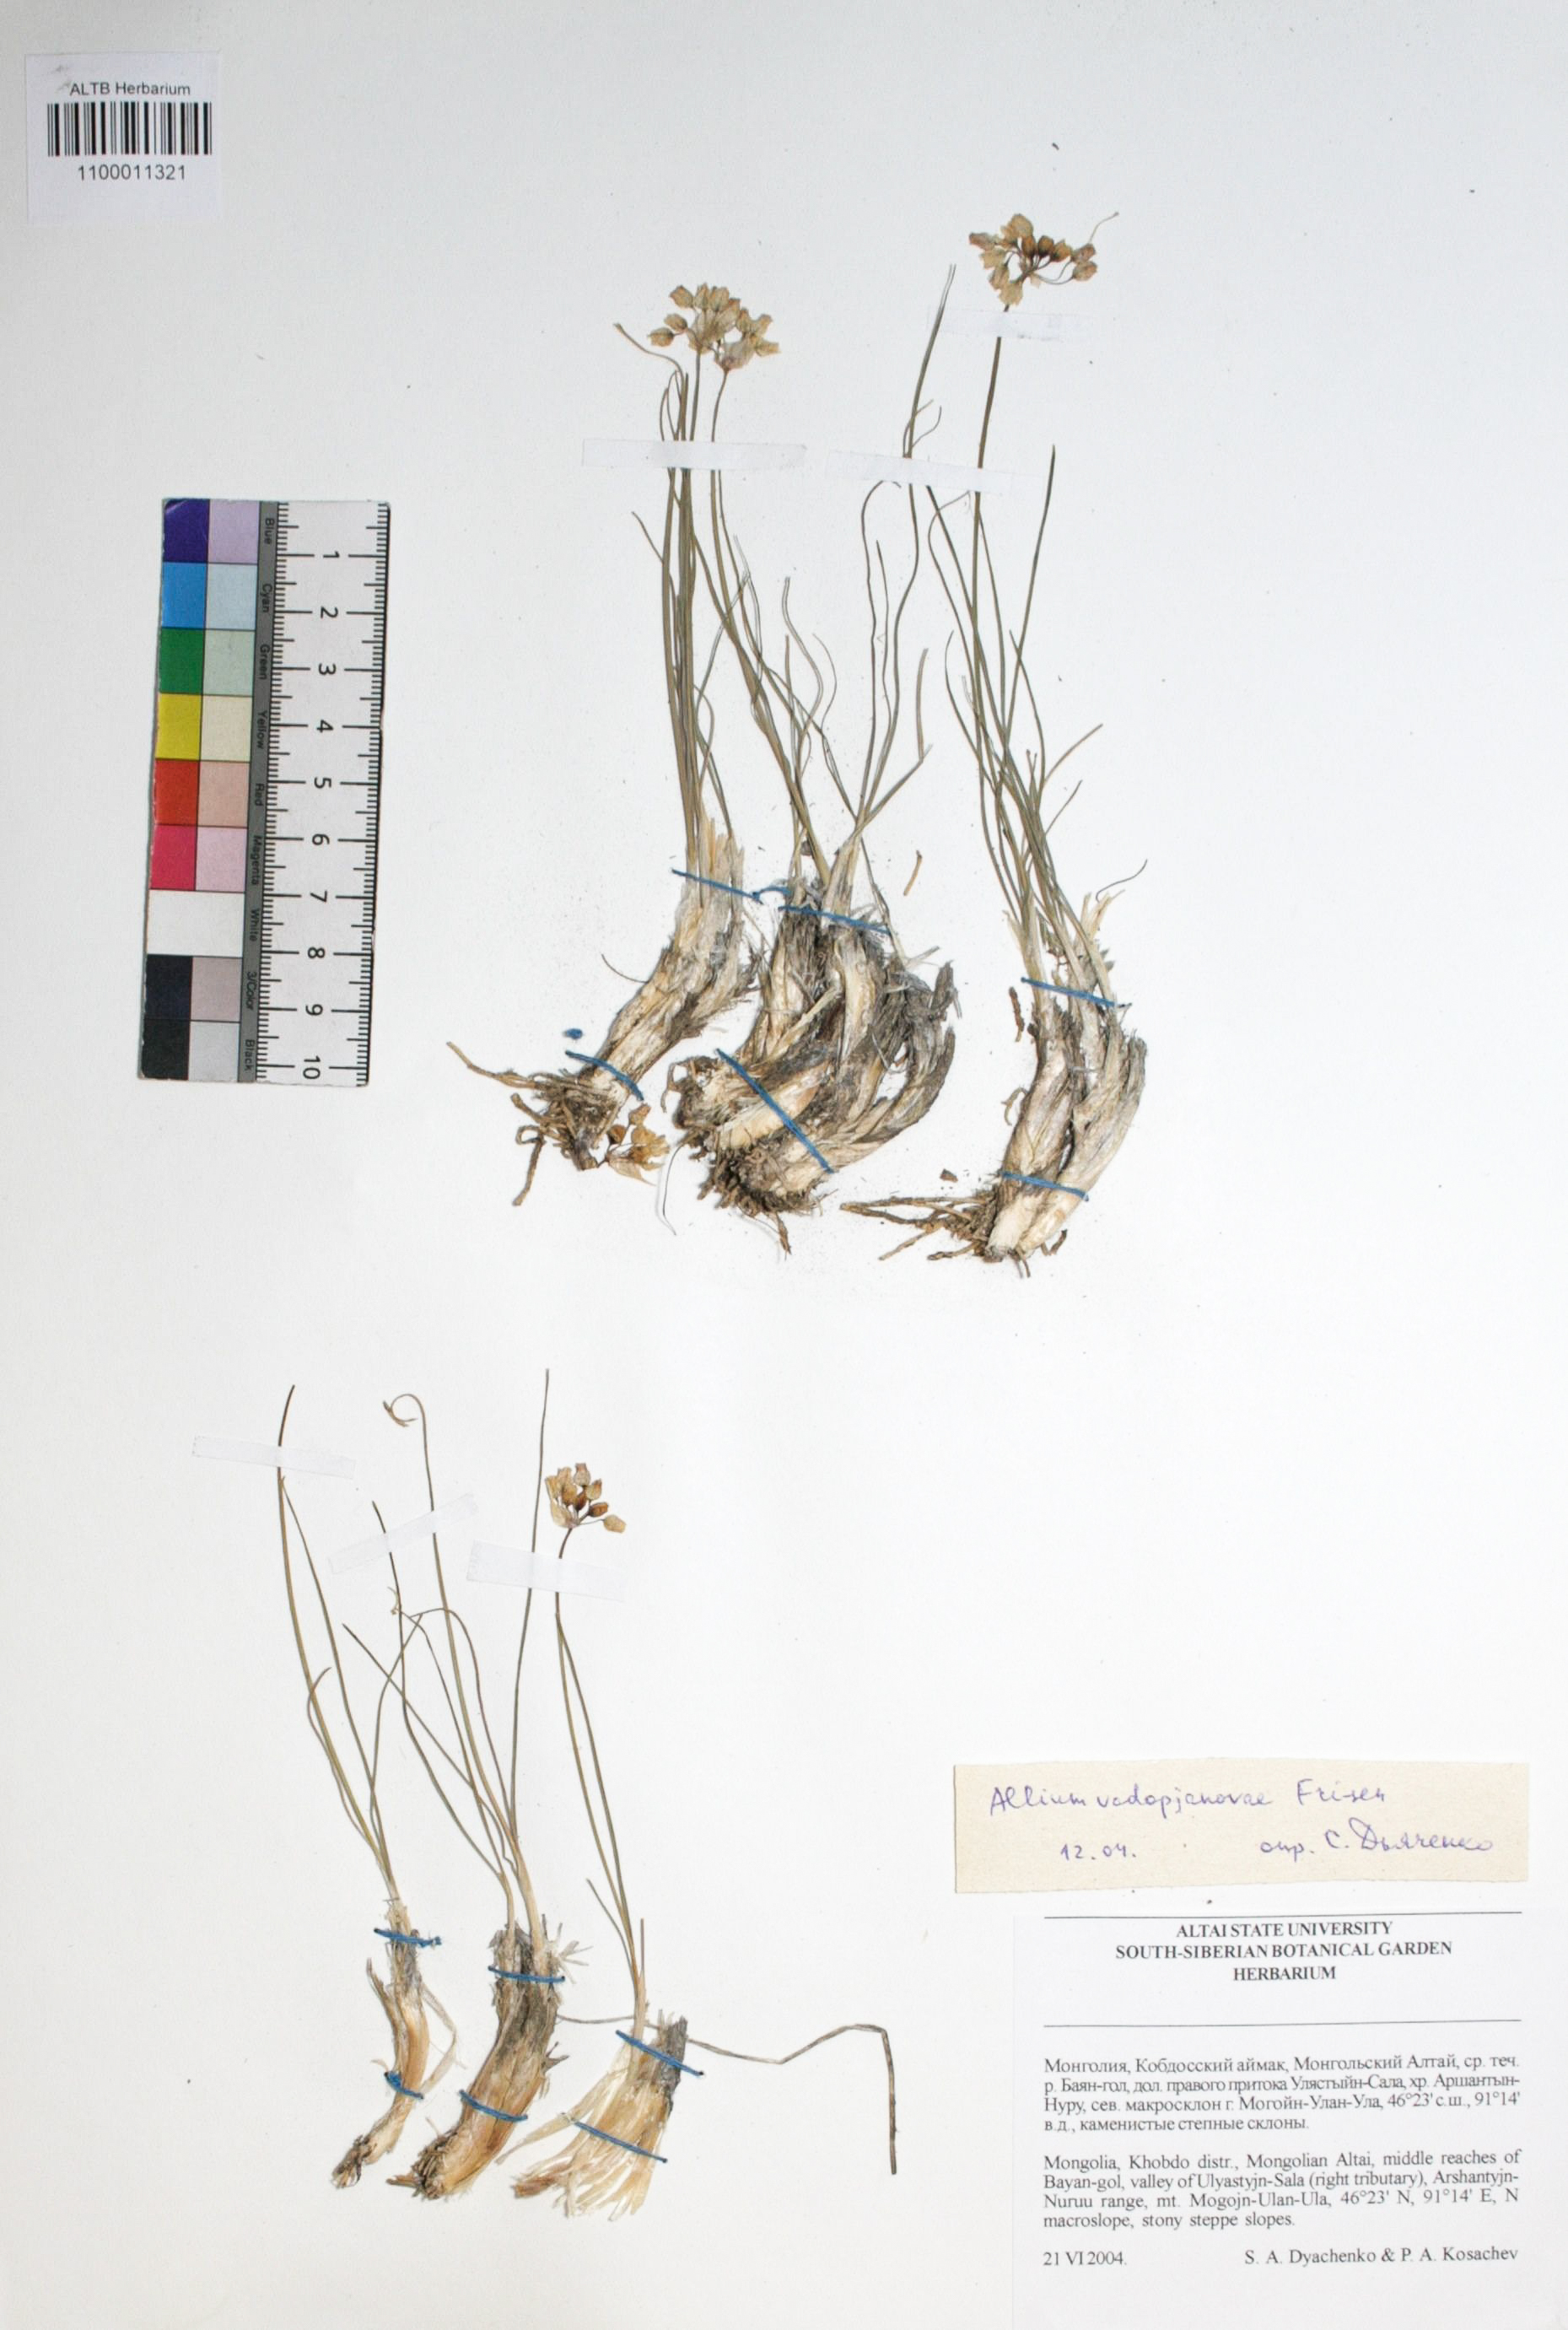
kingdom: Plantae
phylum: Tracheophyta
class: Liliopsida
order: Asparagales
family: Amaryllidaceae
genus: Allium
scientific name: Allium vodopjanovae
